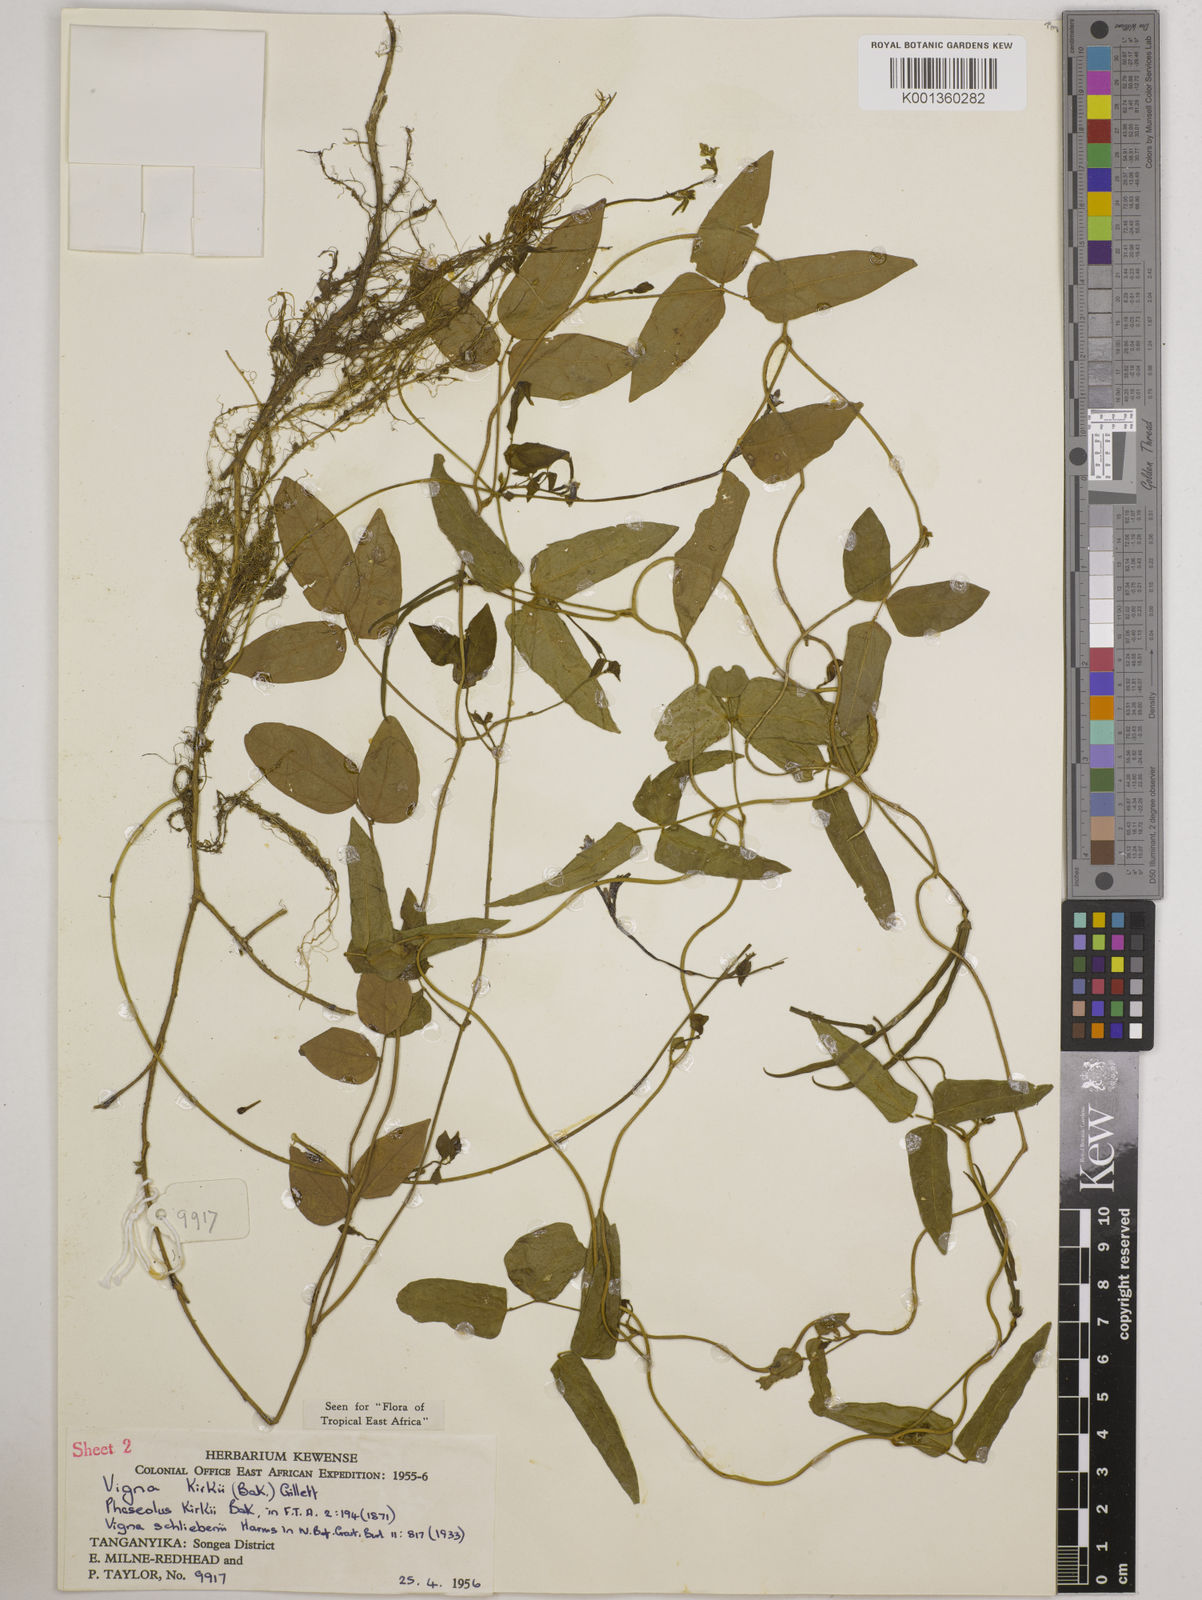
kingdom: Plantae
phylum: Tracheophyta
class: Magnoliopsida
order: Fabales
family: Fabaceae
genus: Vigna
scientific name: Vigna kirkii
